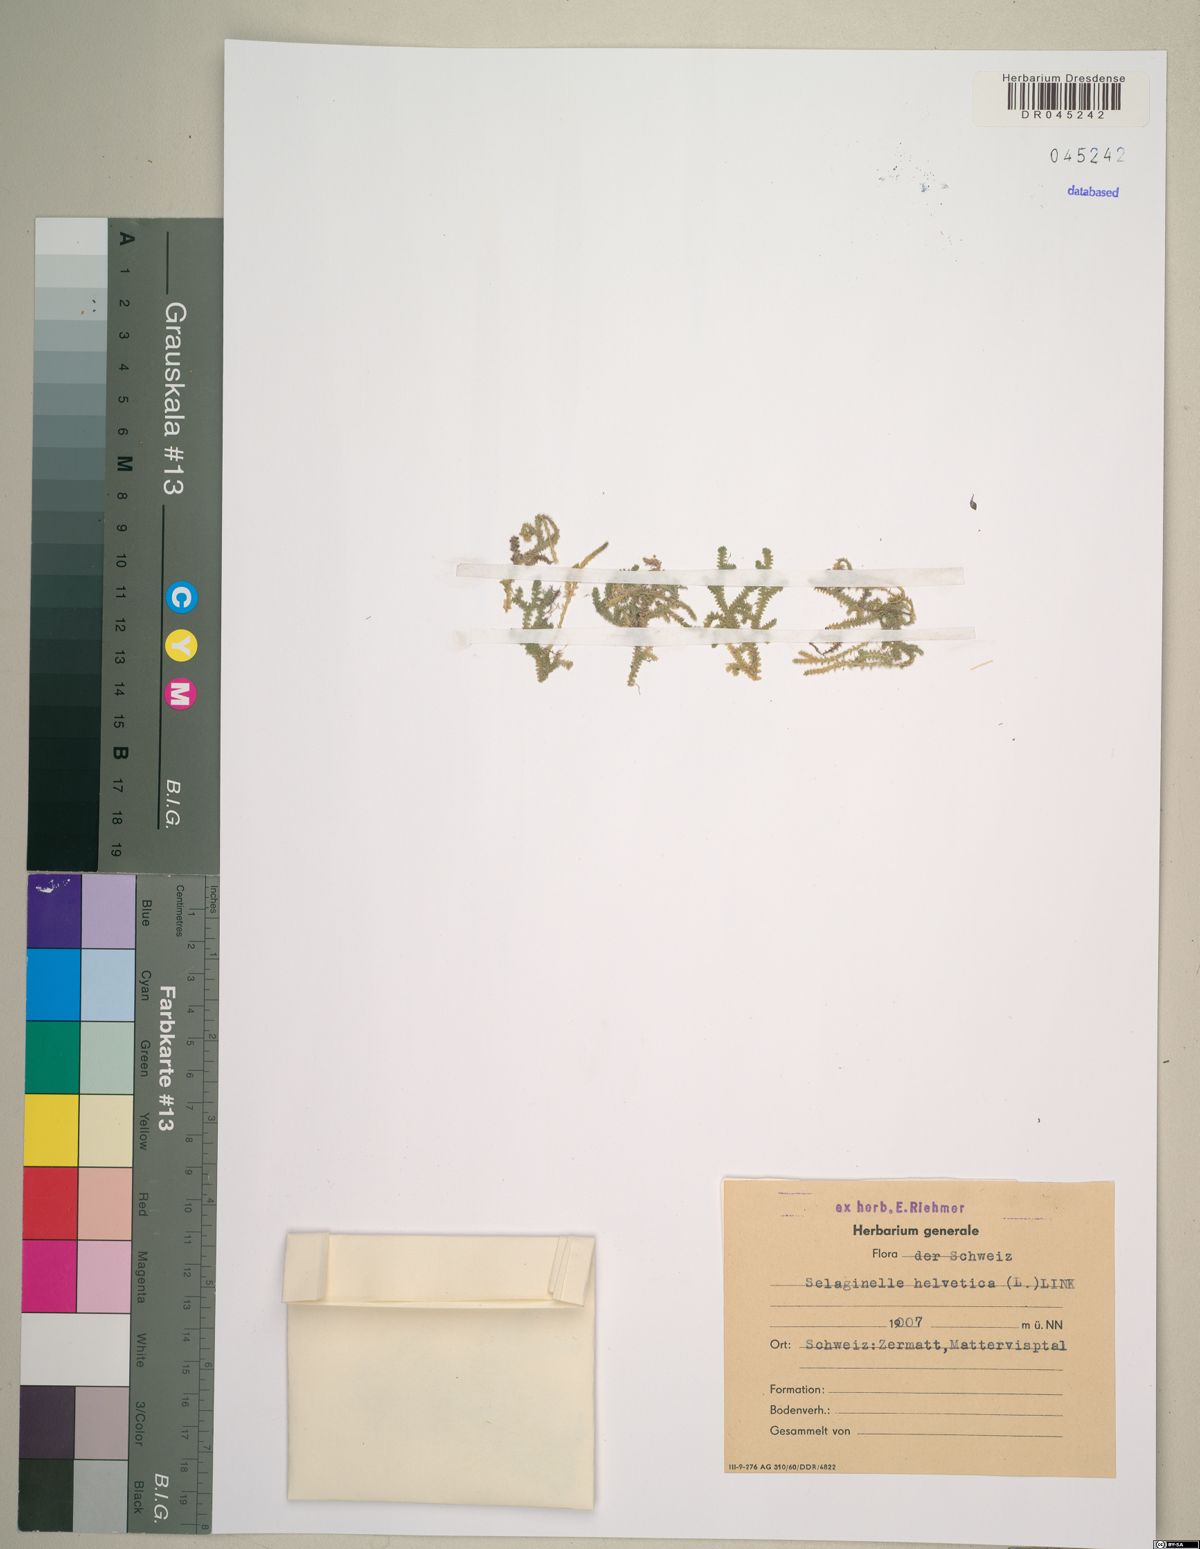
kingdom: Plantae
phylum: Tracheophyta
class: Lycopodiopsida
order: Selaginellales
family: Selaginellaceae
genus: Selaginella
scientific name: Selaginella helvetica
